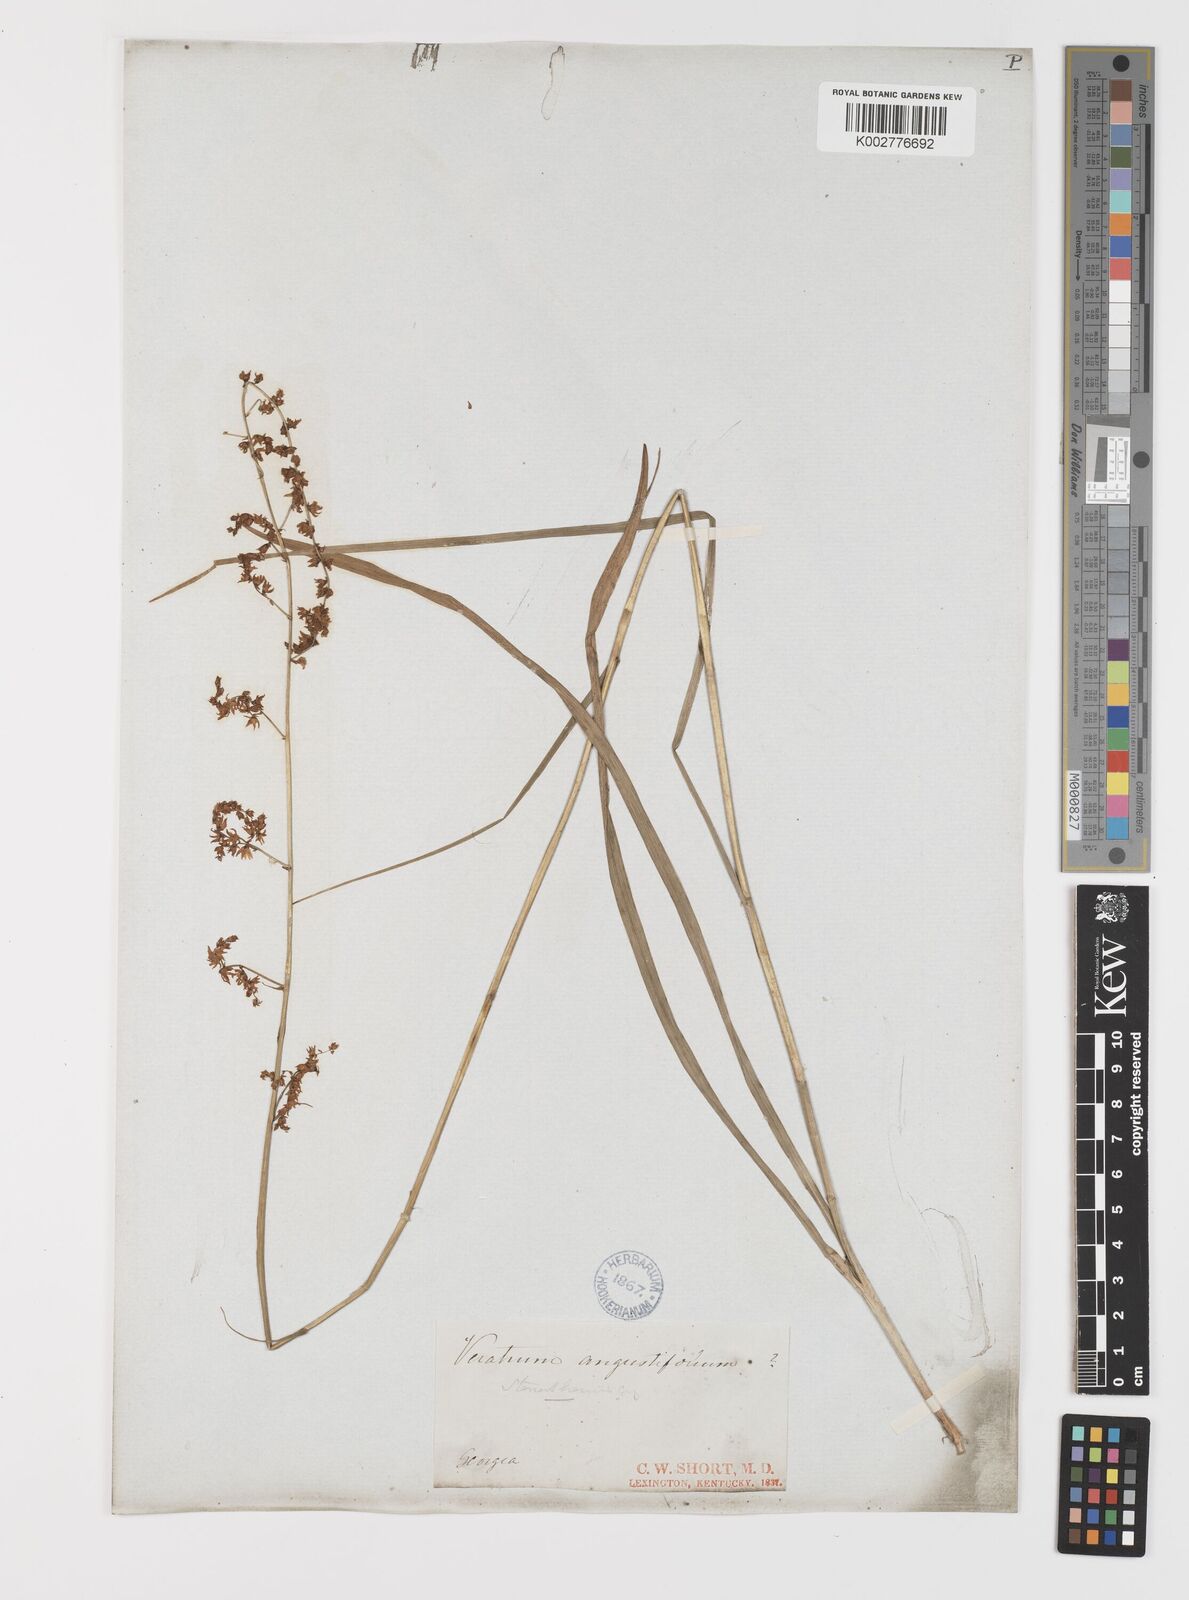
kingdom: Plantae
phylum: Tracheophyta
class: Liliopsida
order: Liliales
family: Melanthiaceae
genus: Stenanthium
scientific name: Stenanthium gramineum
